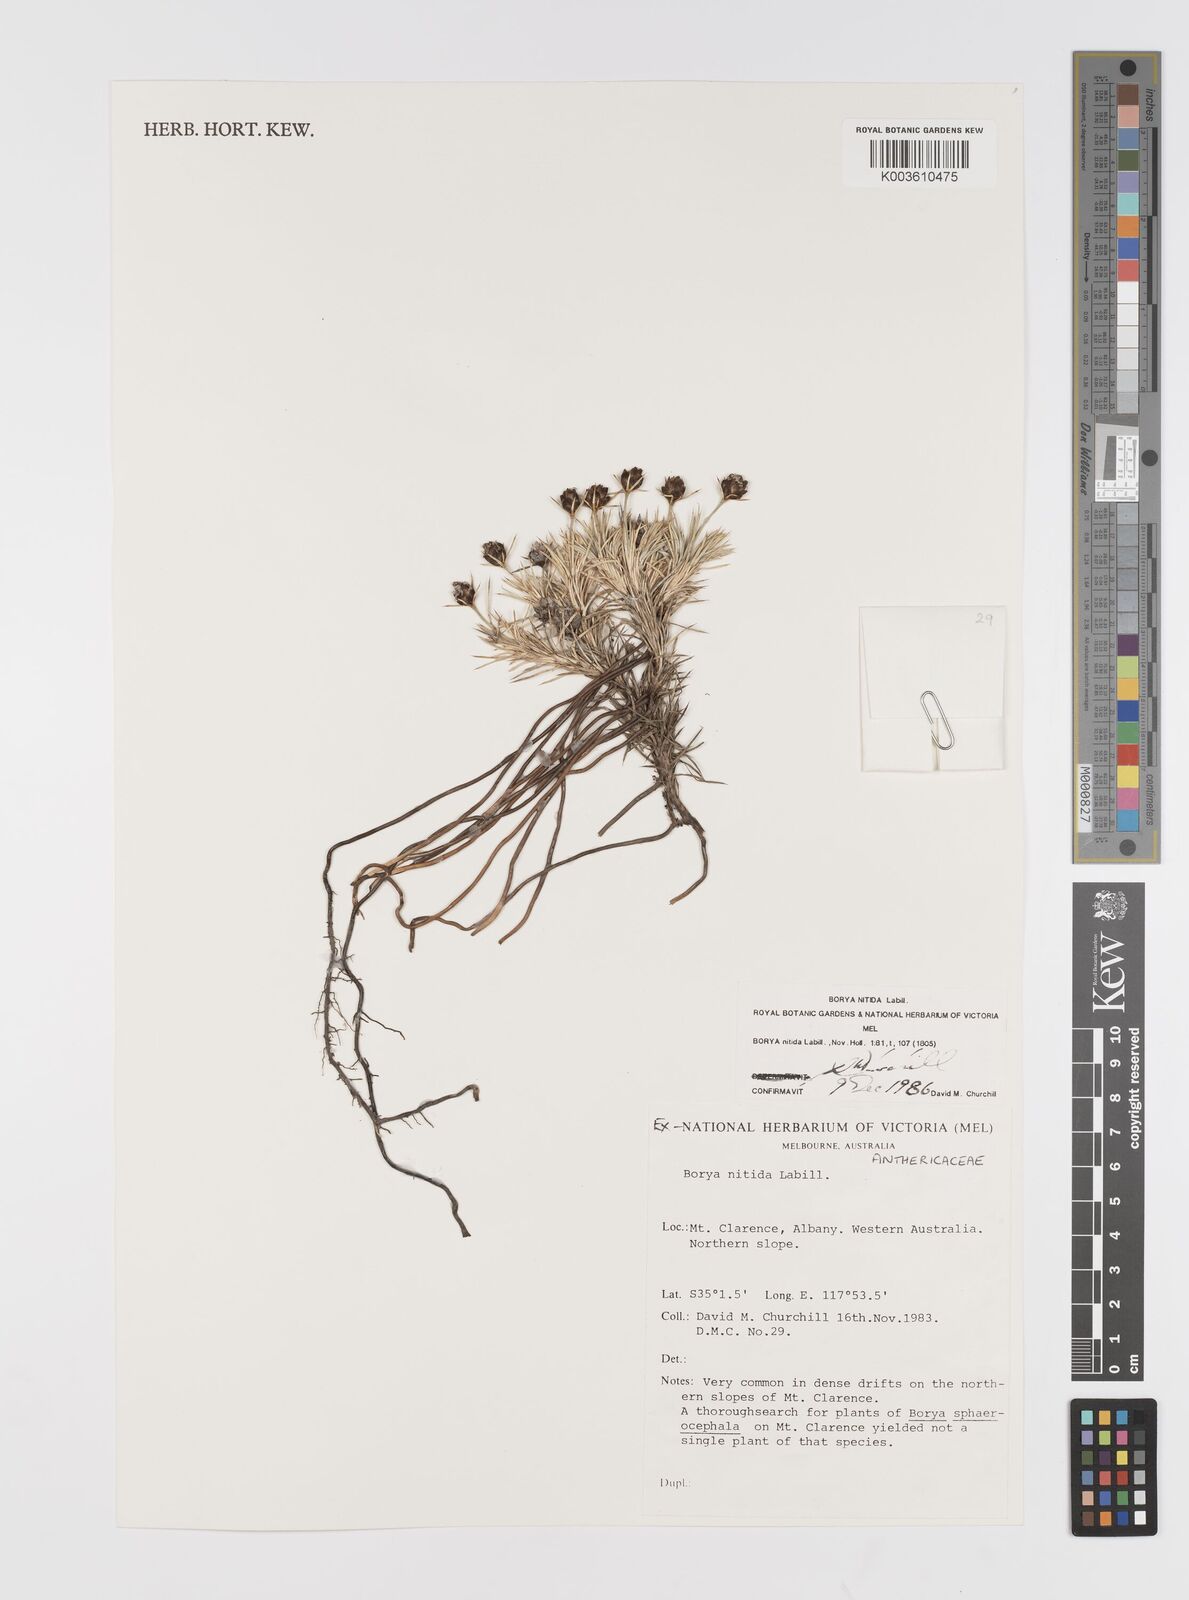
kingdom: Plantae
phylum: Tracheophyta
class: Liliopsida
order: Asparagales
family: Boryaceae
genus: Borya
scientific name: Borya nitida
